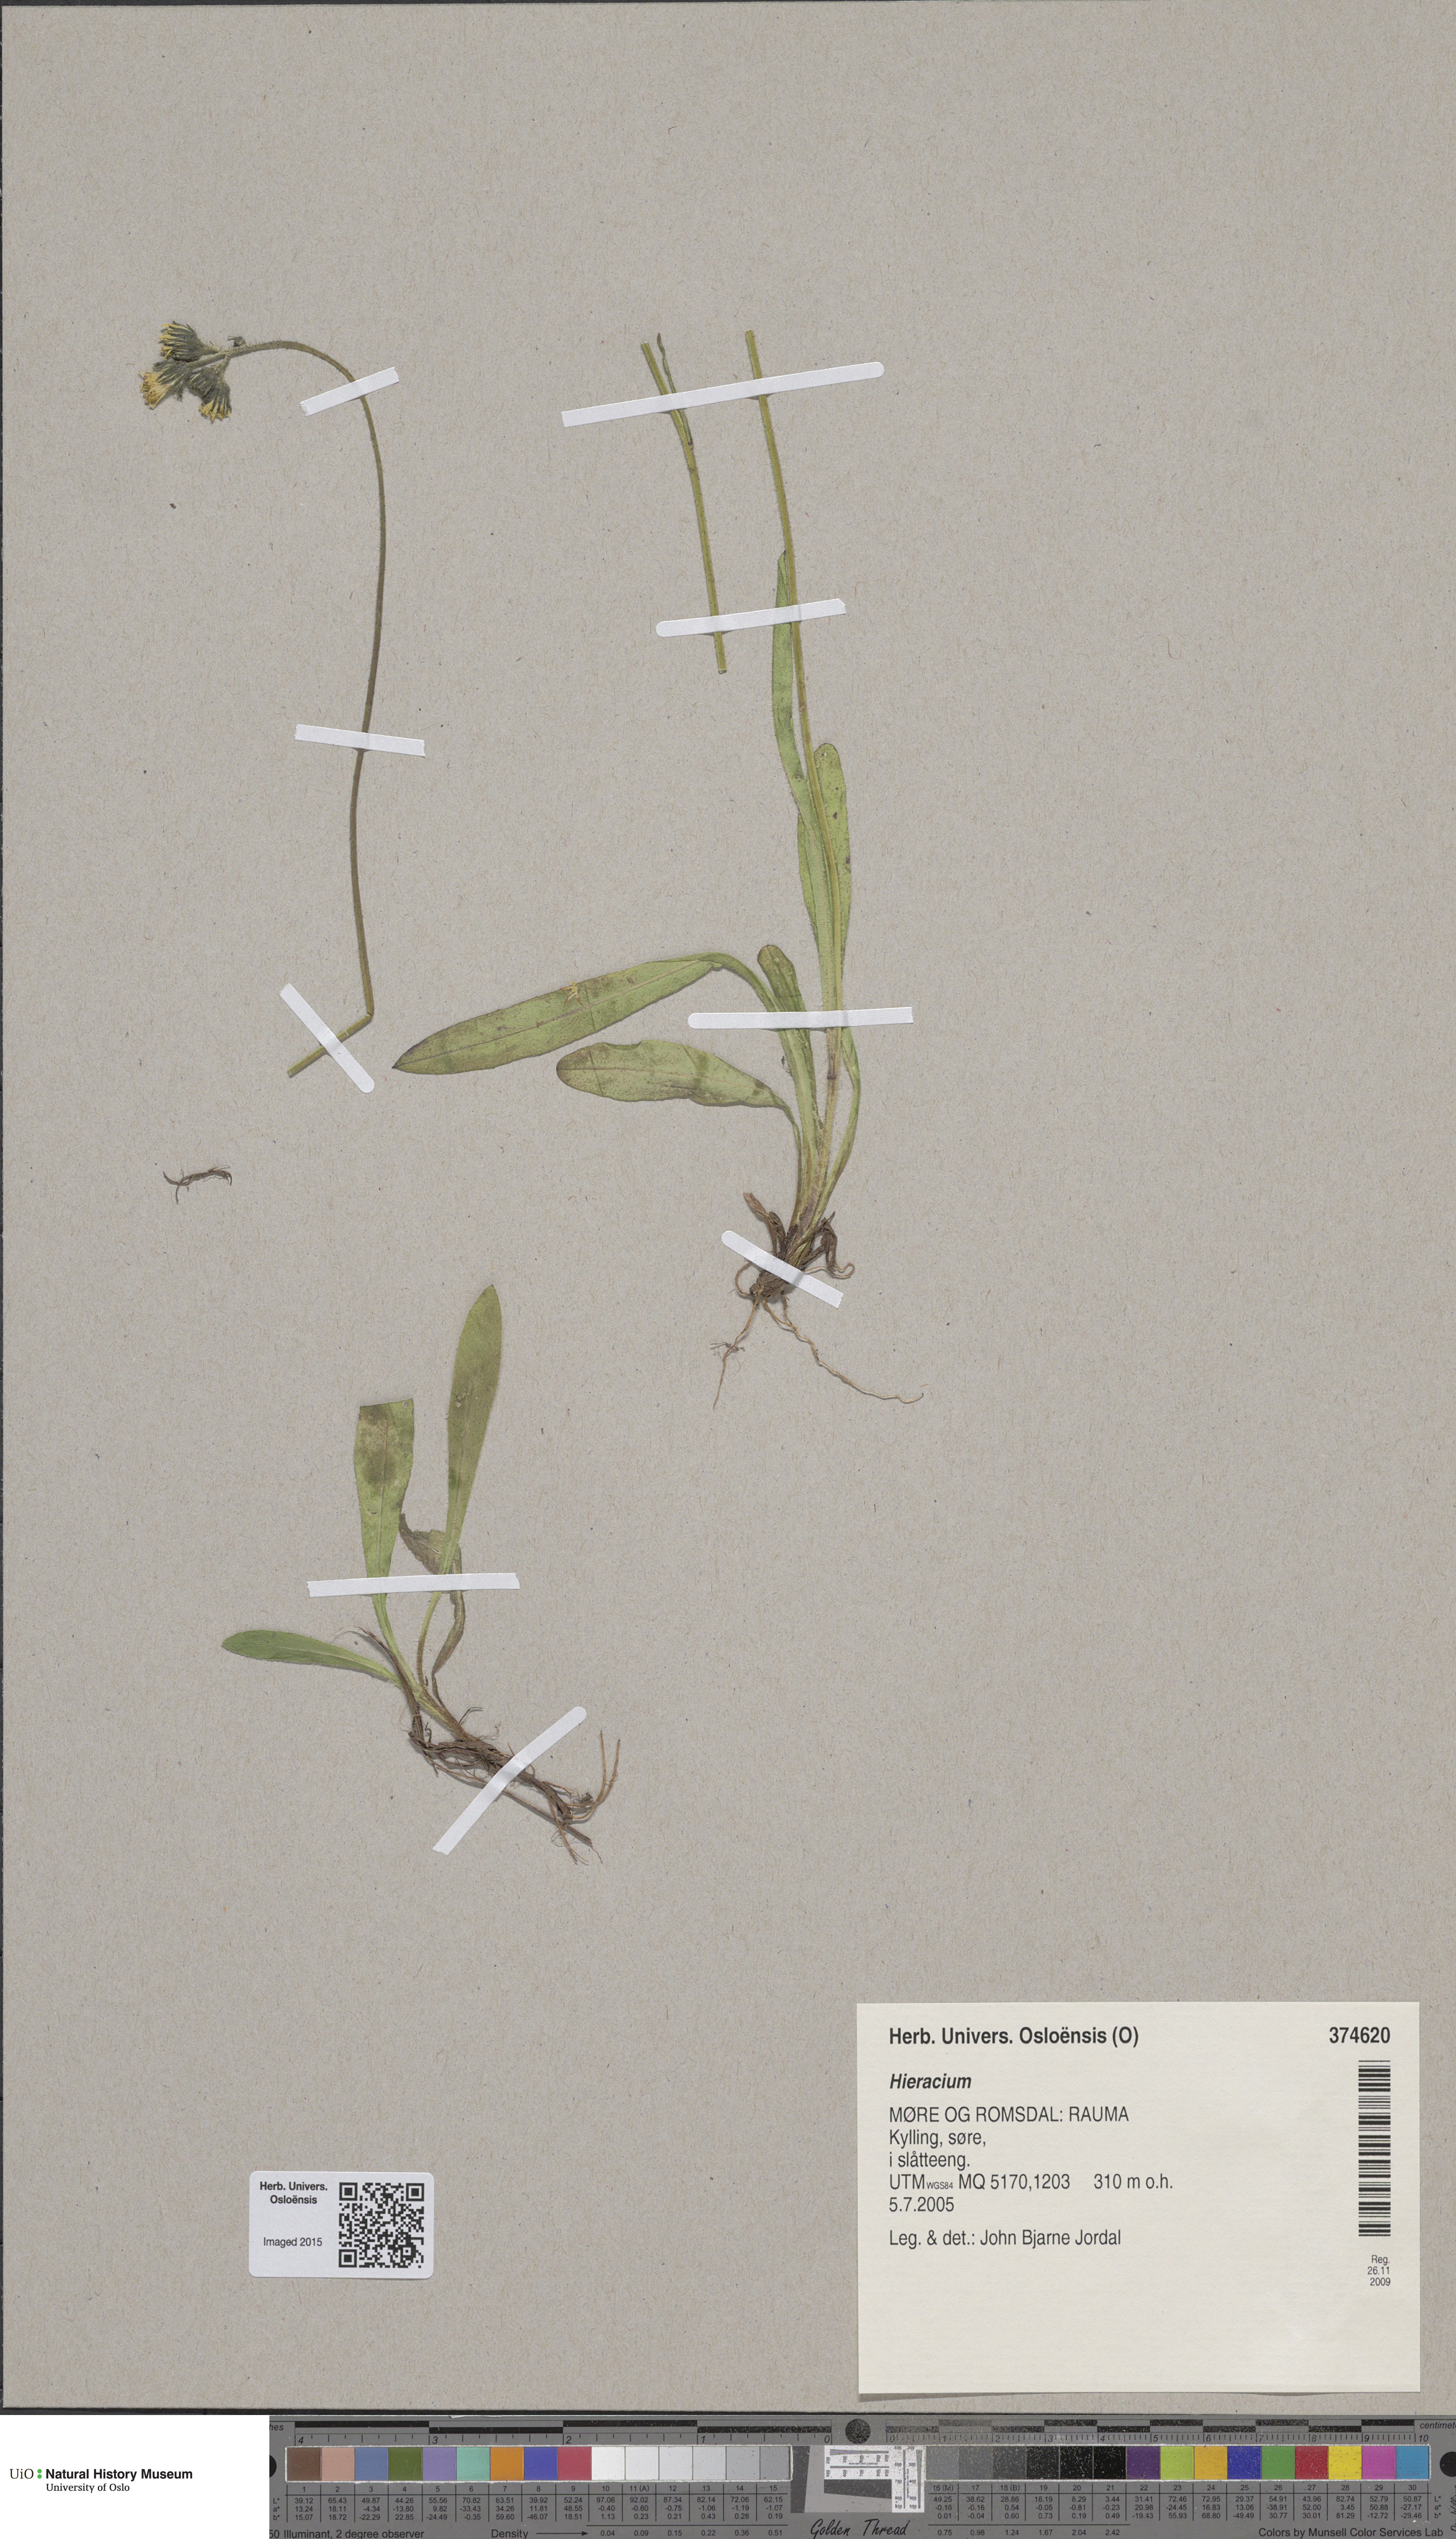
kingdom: Plantae
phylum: Tracheophyta
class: Magnoliopsida
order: Asterales
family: Asteraceae
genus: Hieracium
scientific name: Hieracium
